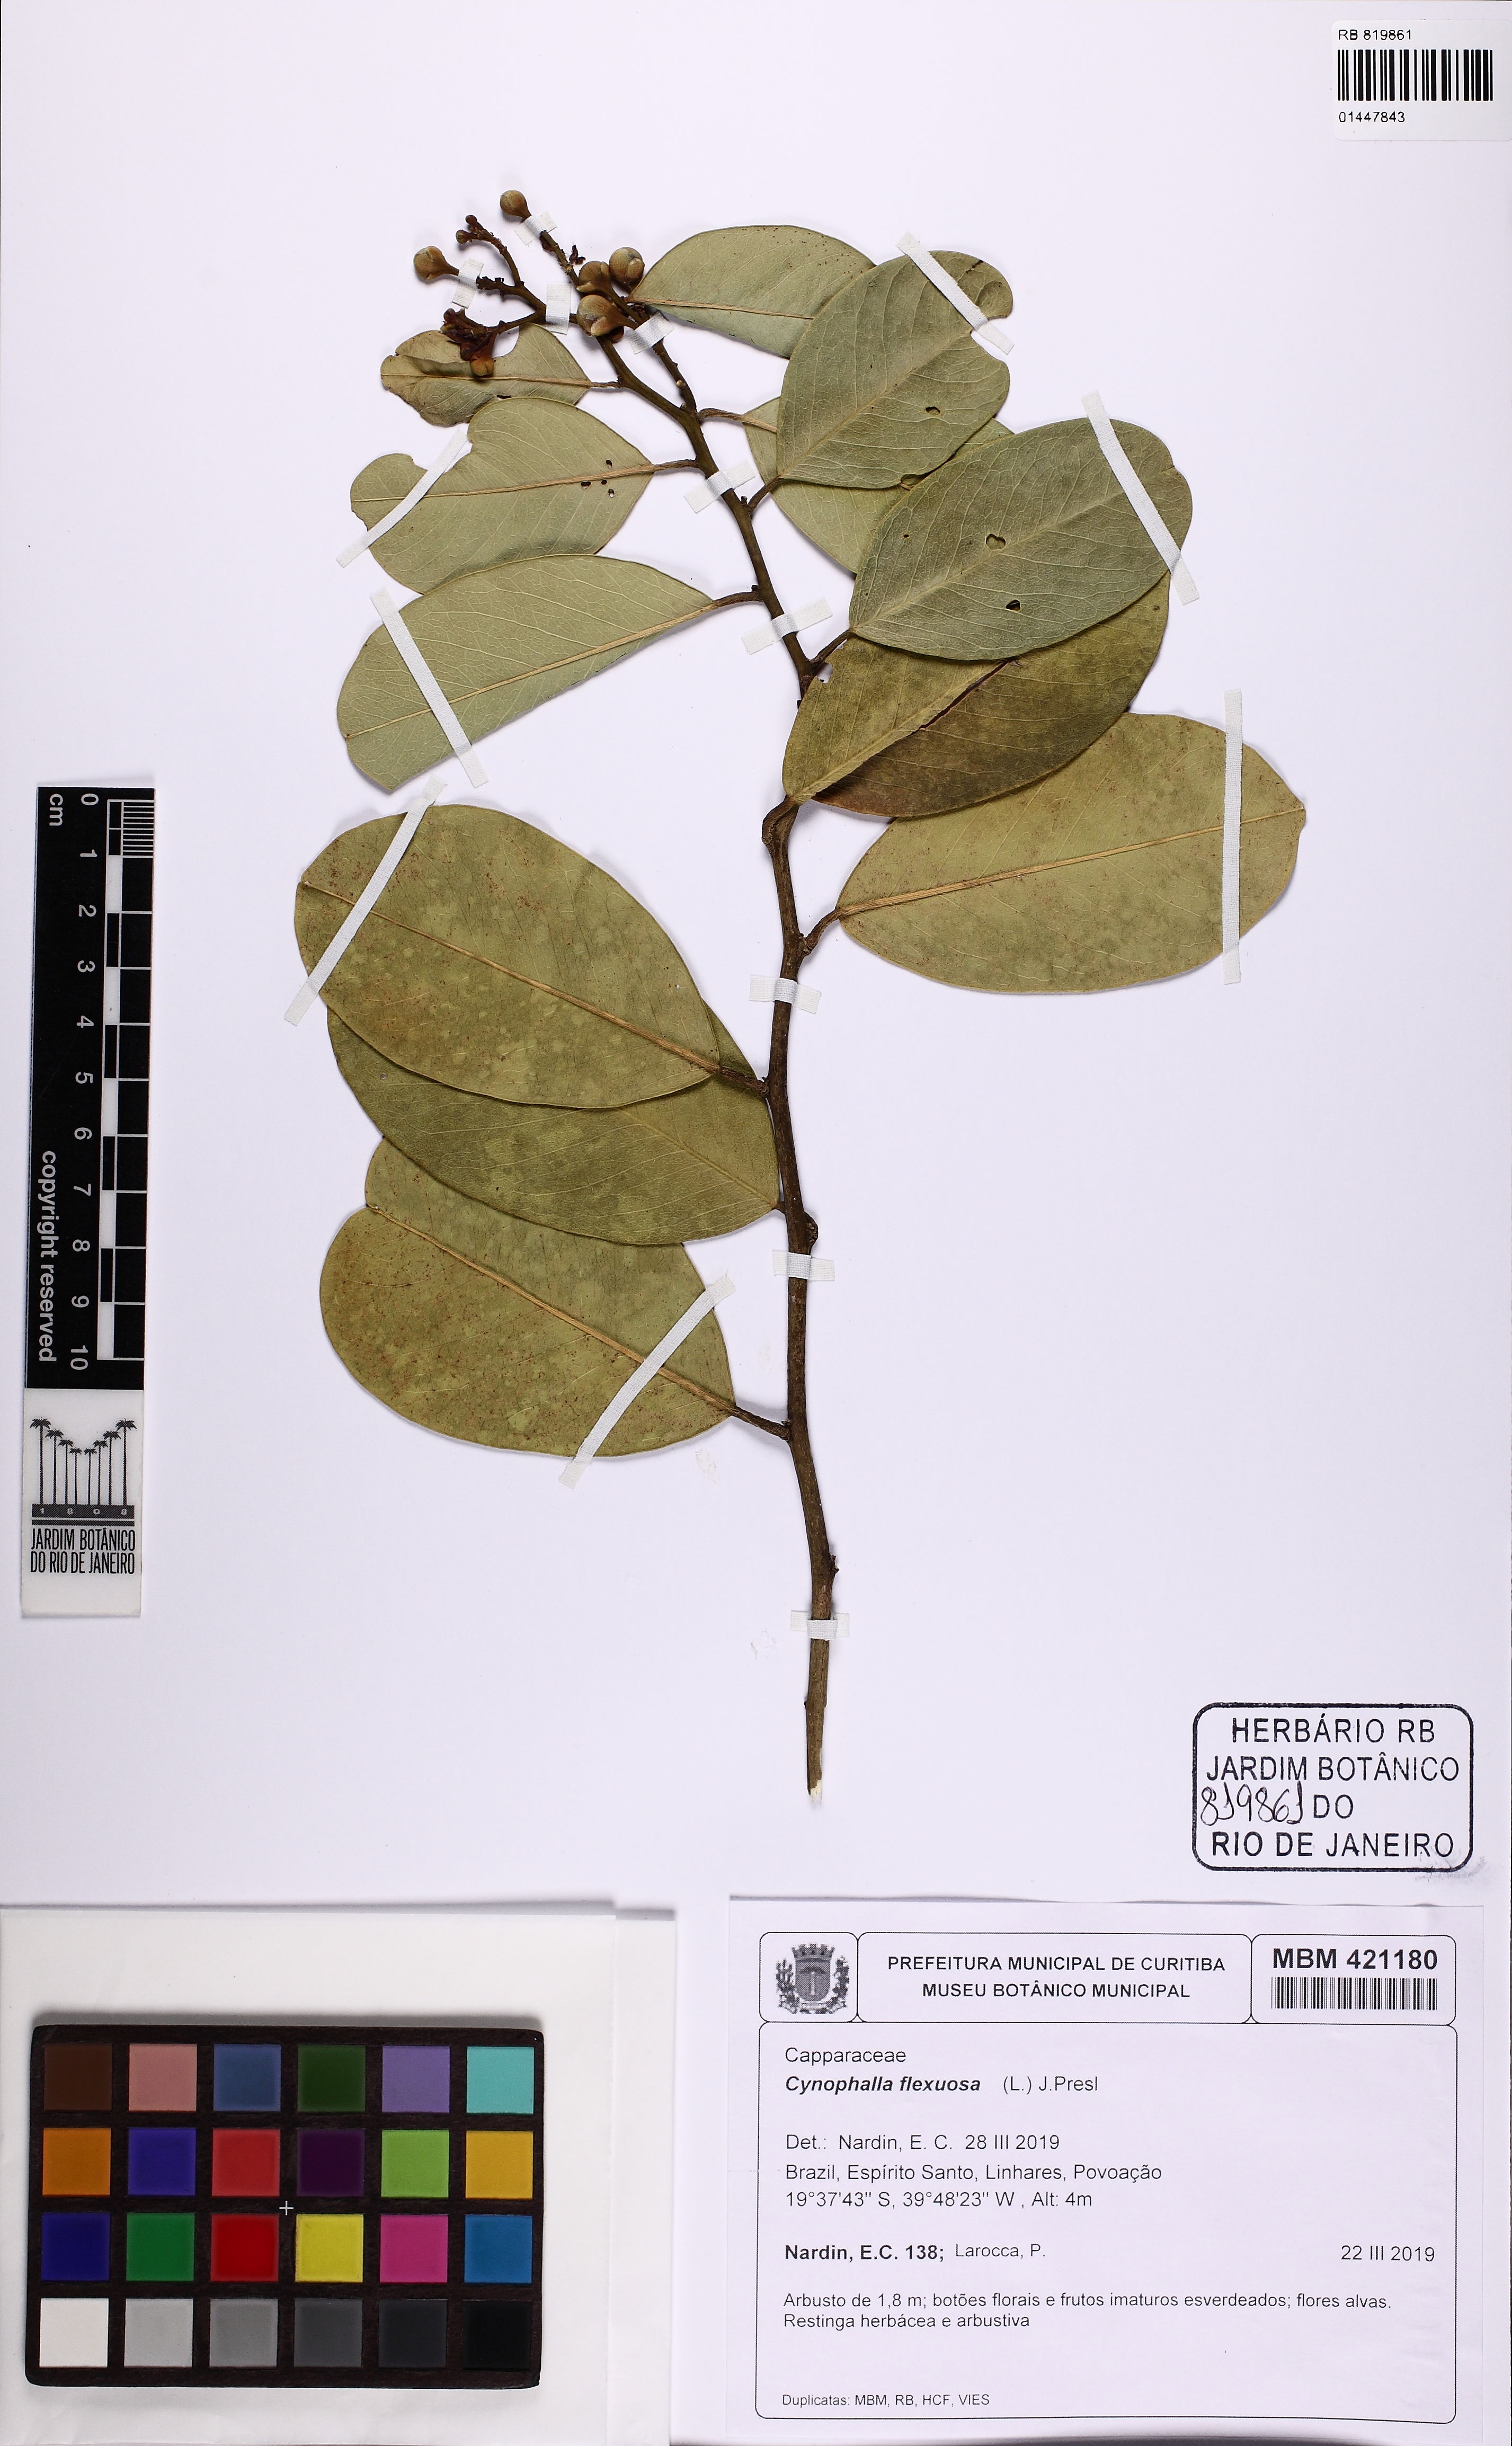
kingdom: Plantae
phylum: Tracheophyta
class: Magnoliopsida
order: Brassicales
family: Capparaceae
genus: Cynophalla
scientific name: Cynophalla flexuosa
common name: Capertree
